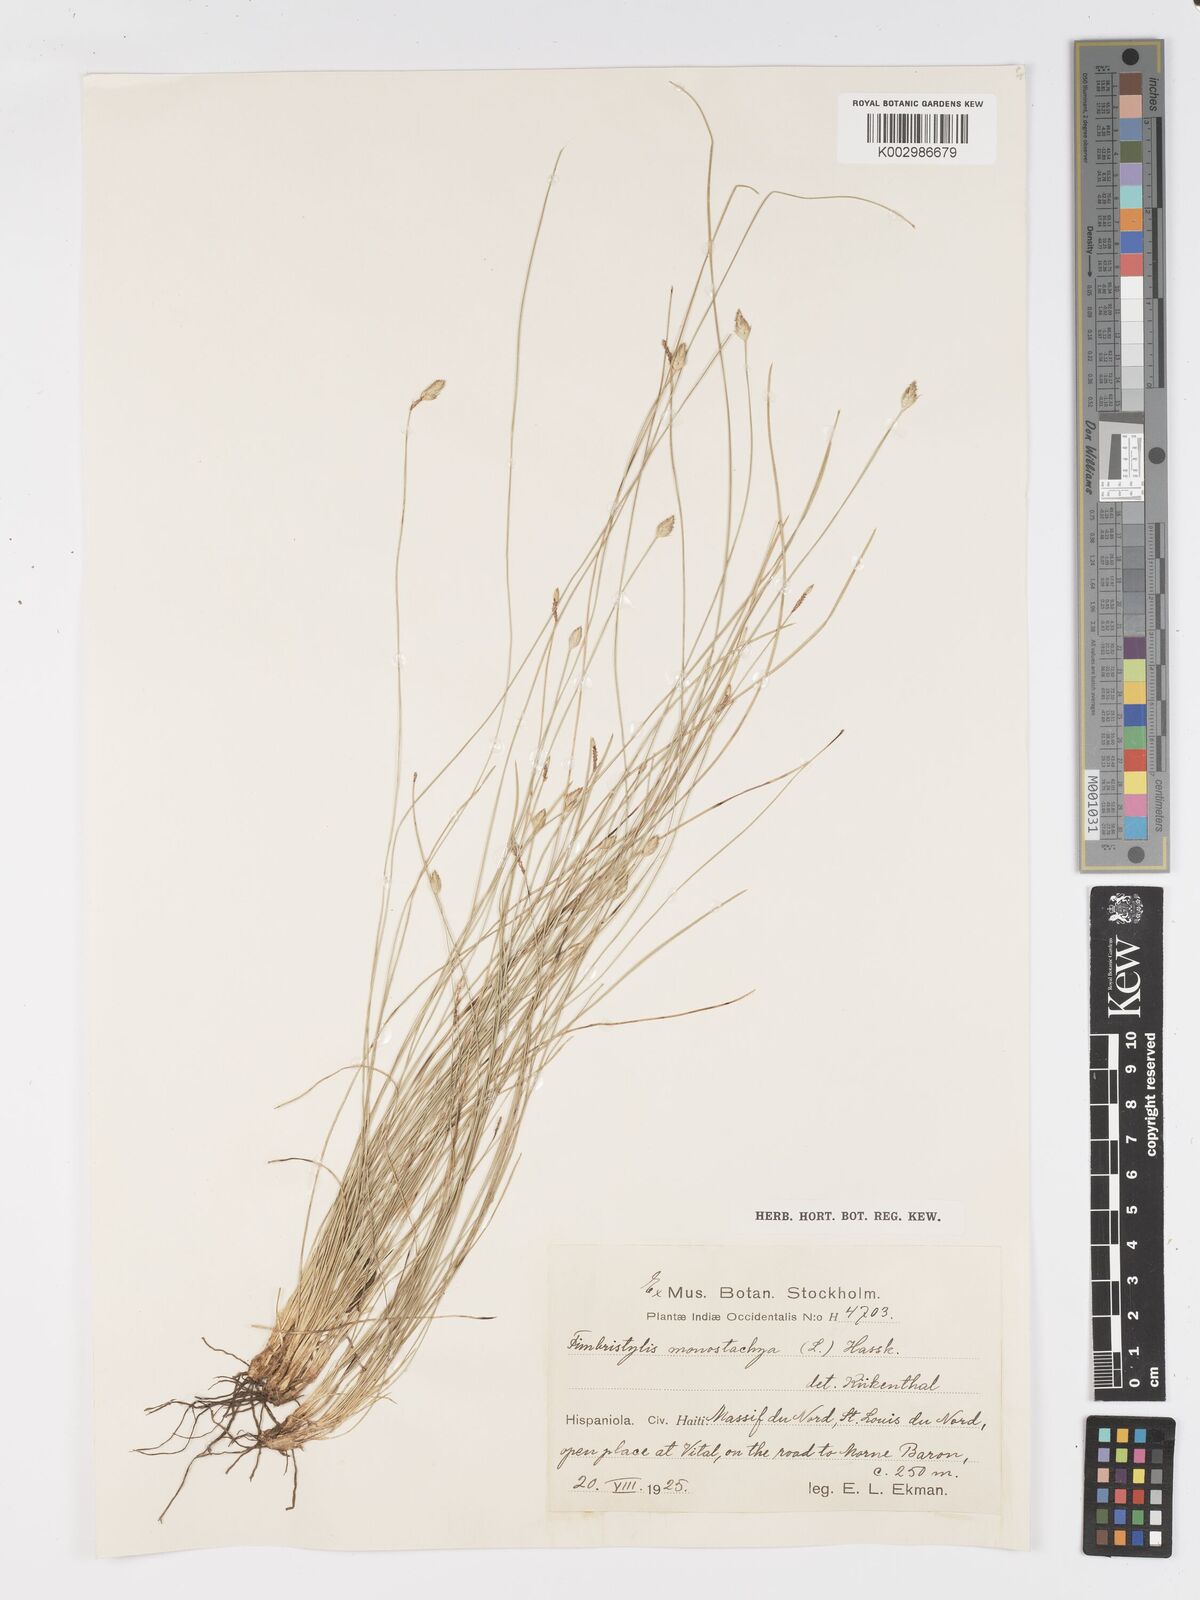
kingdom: Plantae
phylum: Tracheophyta
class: Liliopsida
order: Poales
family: Cyperaceae
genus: Abildgaardia
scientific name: Abildgaardia ovata
